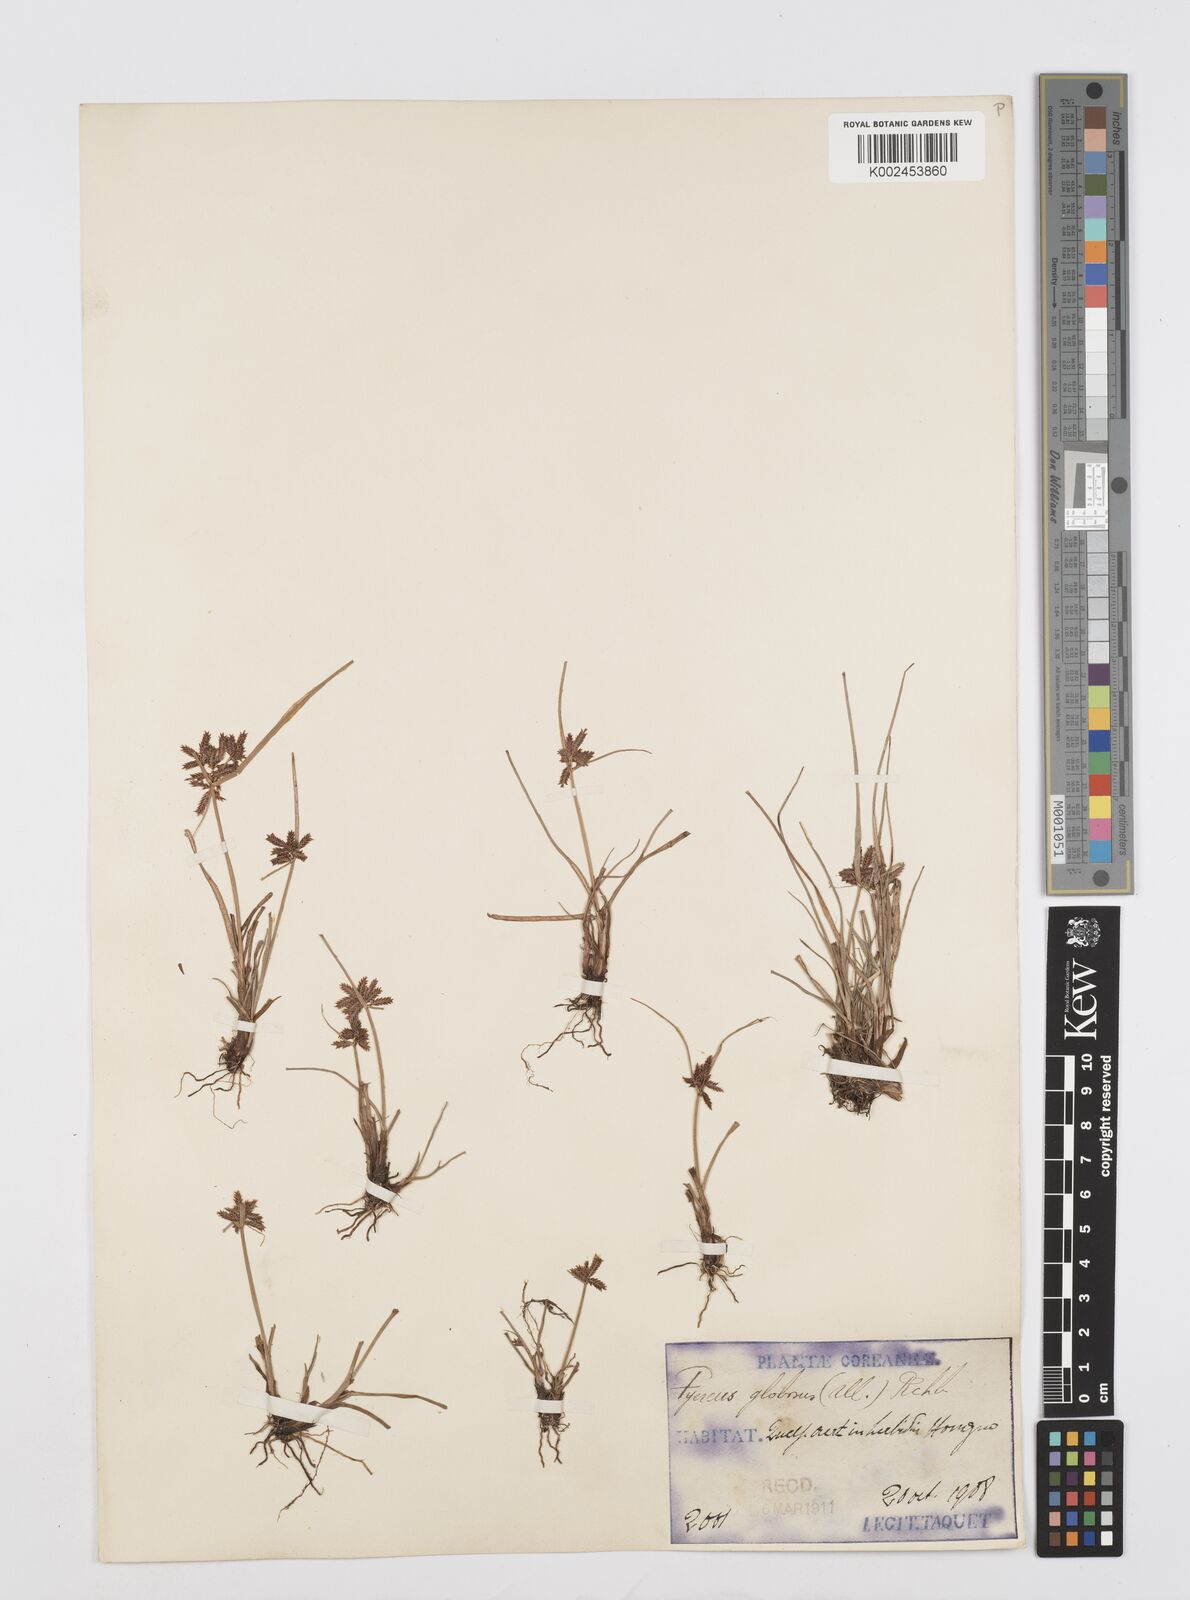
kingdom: Plantae
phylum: Tracheophyta
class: Liliopsida
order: Poales
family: Cyperaceae
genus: Cyperus
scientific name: Cyperus flavidus
